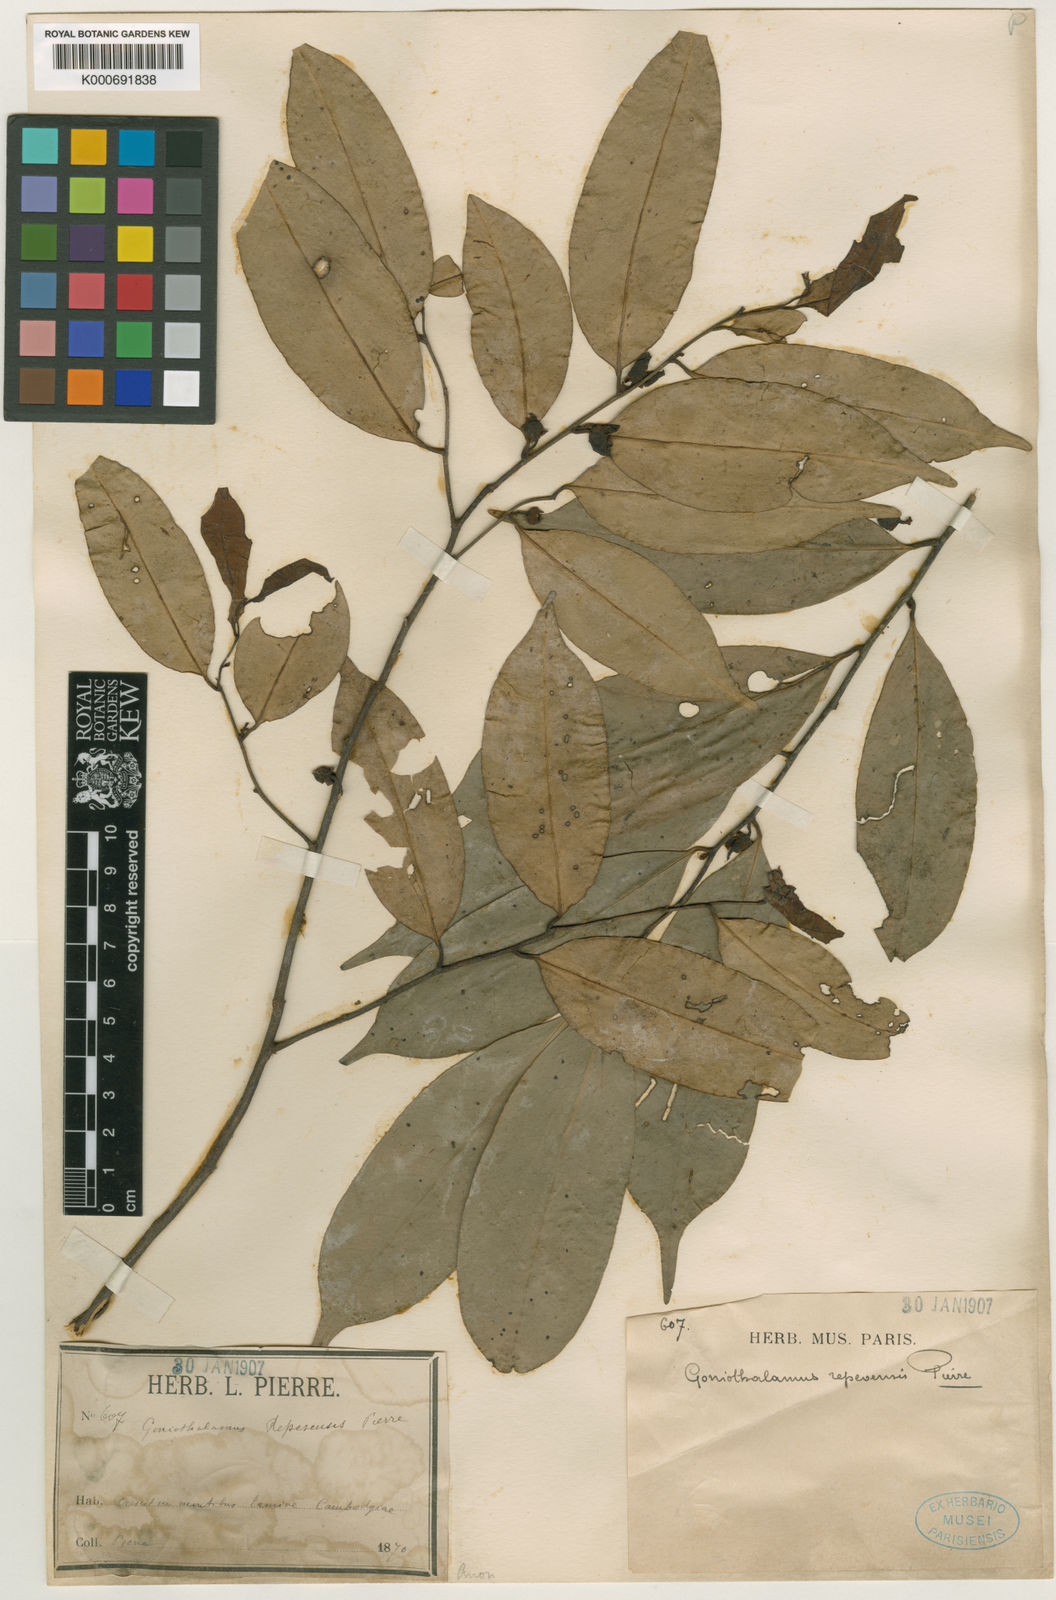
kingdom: Plantae
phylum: Tracheophyta
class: Magnoliopsida
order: Magnoliales
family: Annonaceae
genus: Goniothalamus
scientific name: Goniothalamus repevensis
